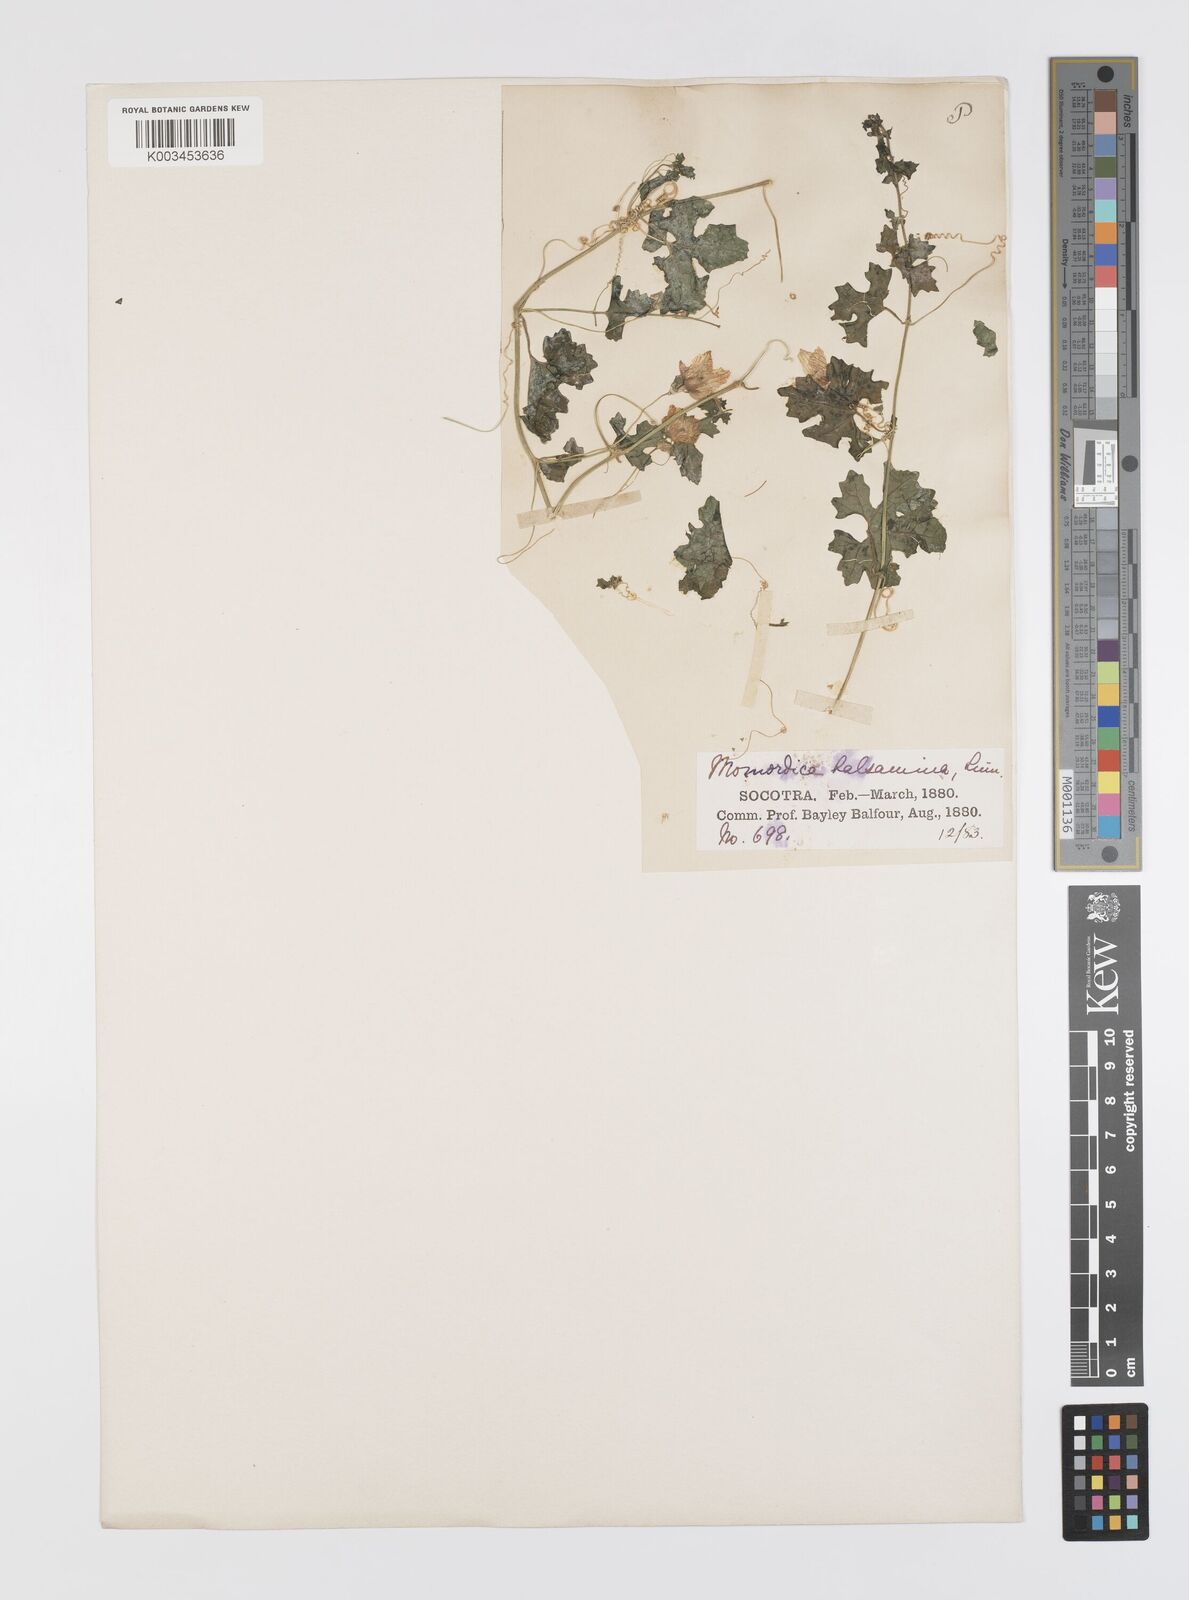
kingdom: Plantae
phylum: Tracheophyta
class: Magnoliopsida
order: Cucurbitales
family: Cucurbitaceae
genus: Momordica
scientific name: Momordica balsamina
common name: Southern balsampear
